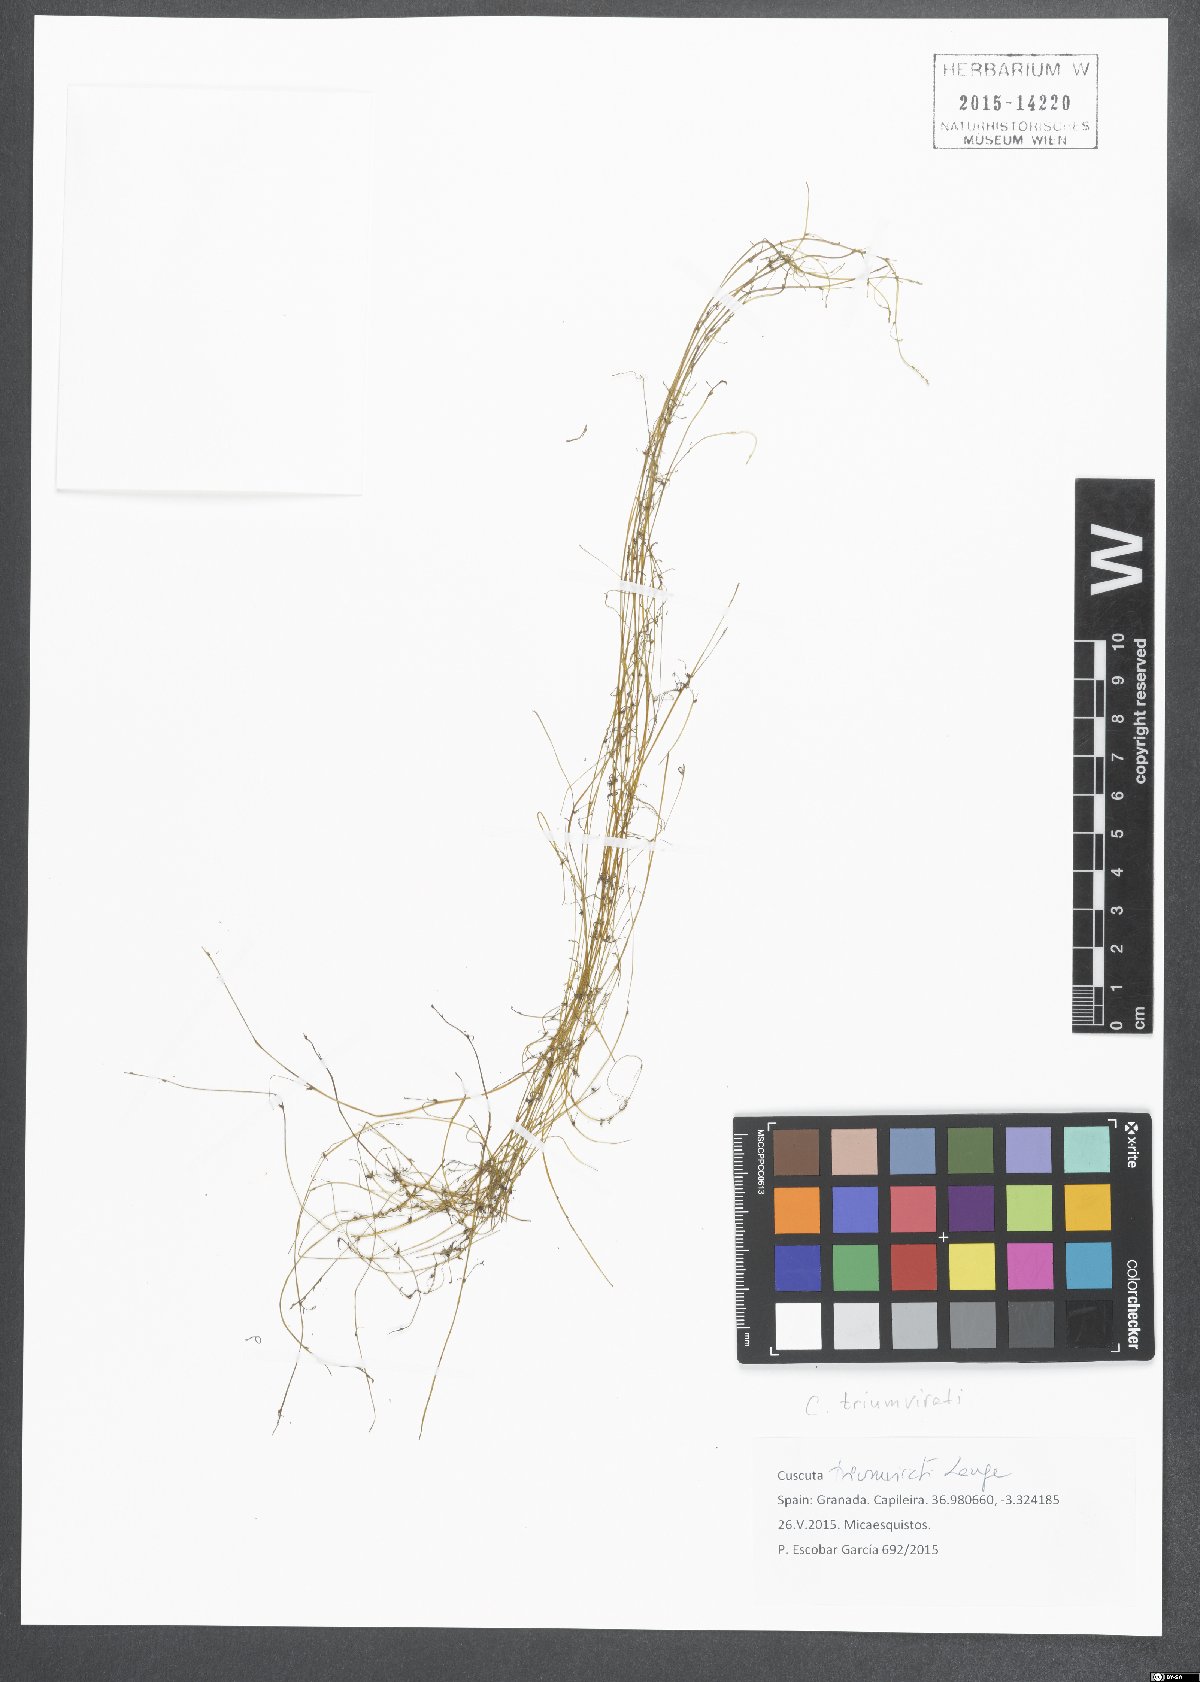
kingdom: Plantae
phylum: Tracheophyta
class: Magnoliopsida
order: Solanales
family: Convolvulaceae
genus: Cuscuta
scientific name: Cuscuta triumvirati
